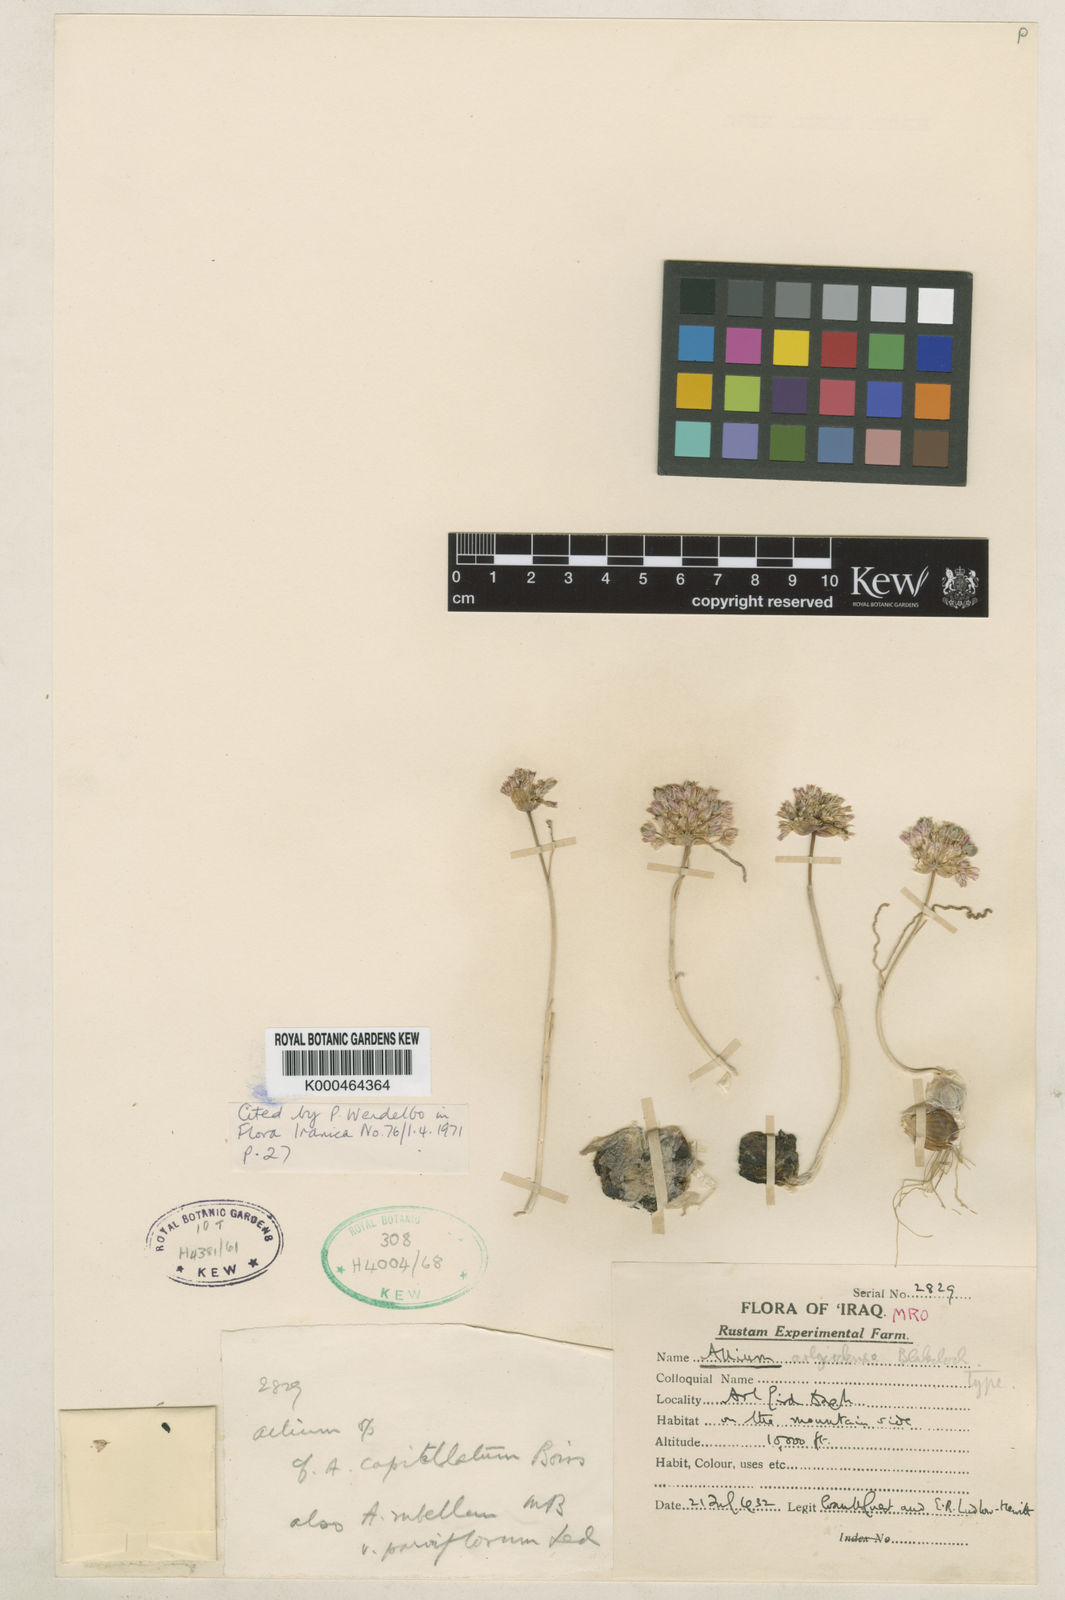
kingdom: Plantae
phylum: Tracheophyta
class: Liliopsida
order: Asparagales
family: Amaryllidaceae
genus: Allium
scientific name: Allium arlgirdense
